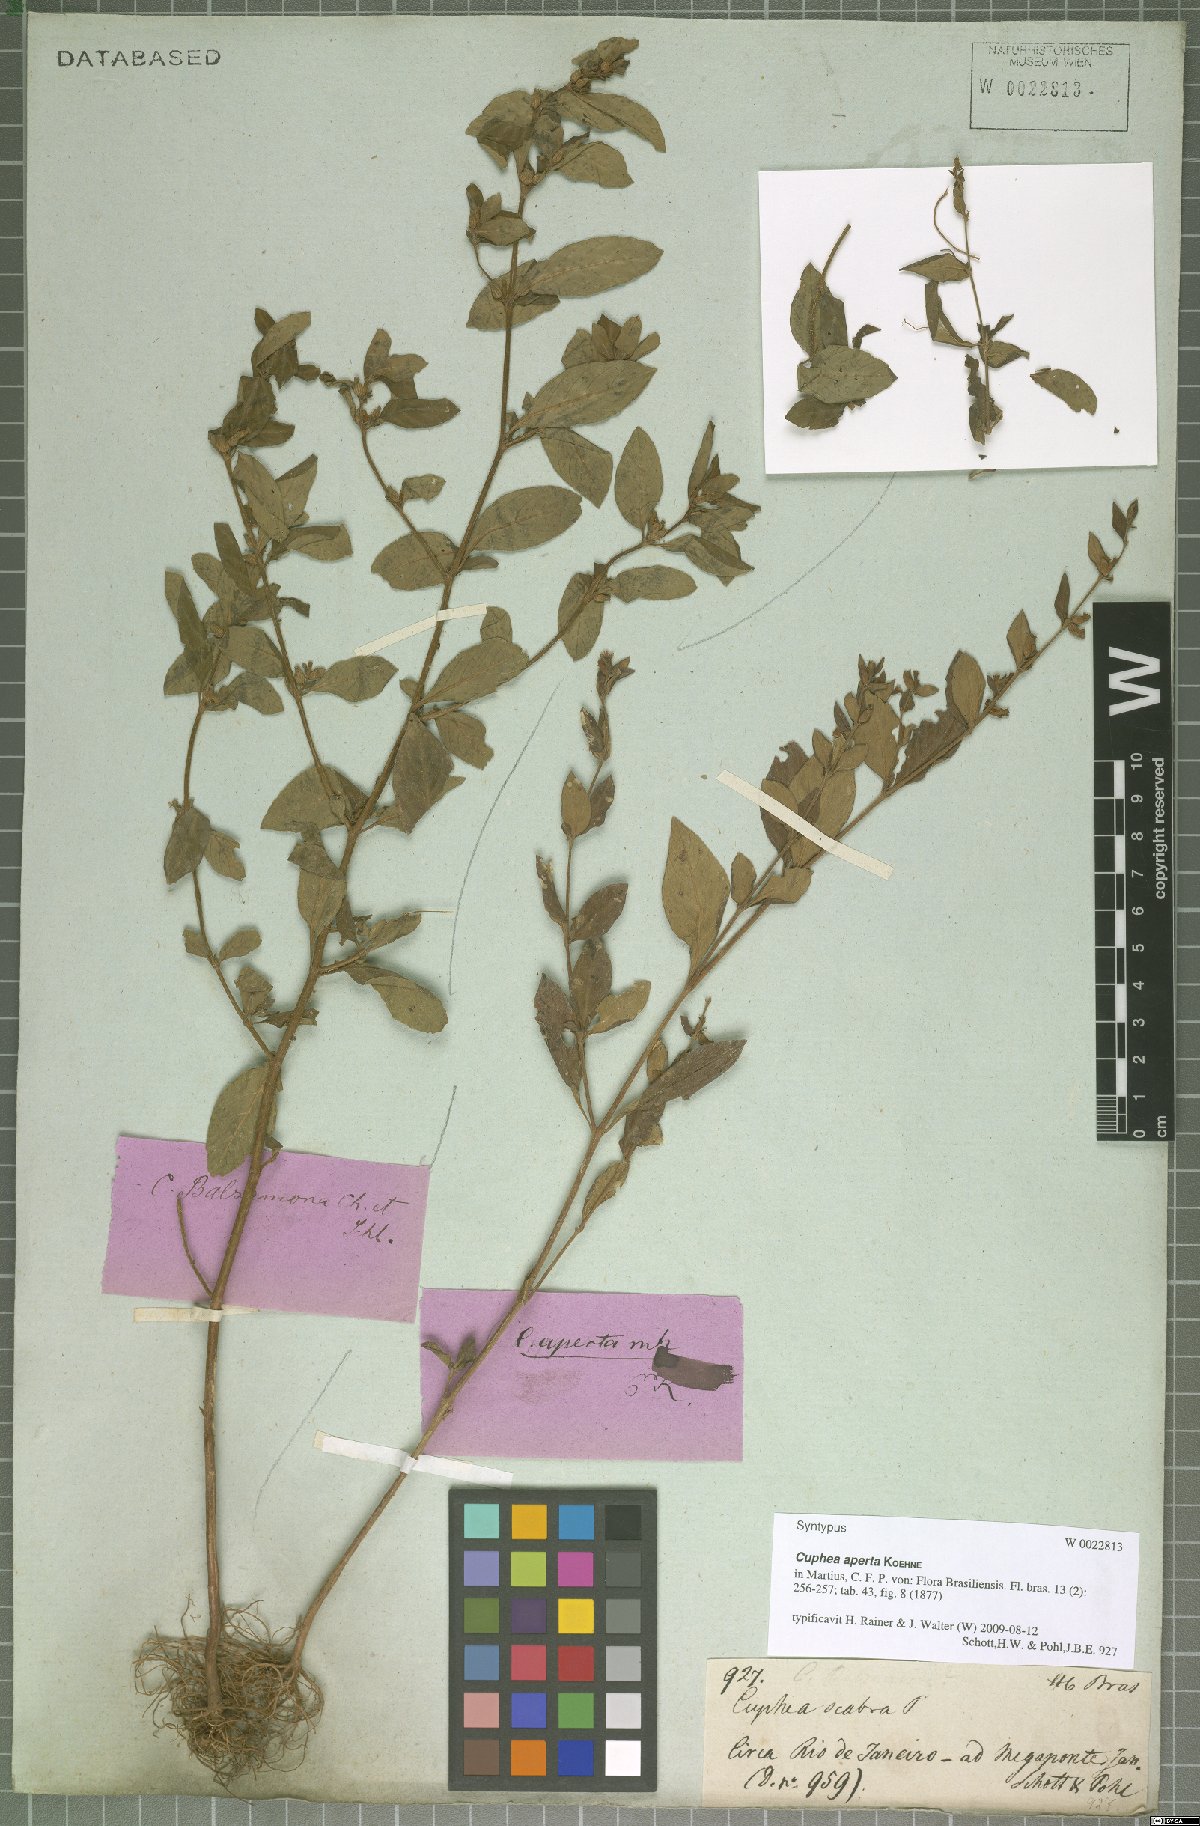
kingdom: Plantae
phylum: Tracheophyta
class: Magnoliopsida
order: Myrtales
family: Lythraceae
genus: Cuphea
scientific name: Cuphea aperta
